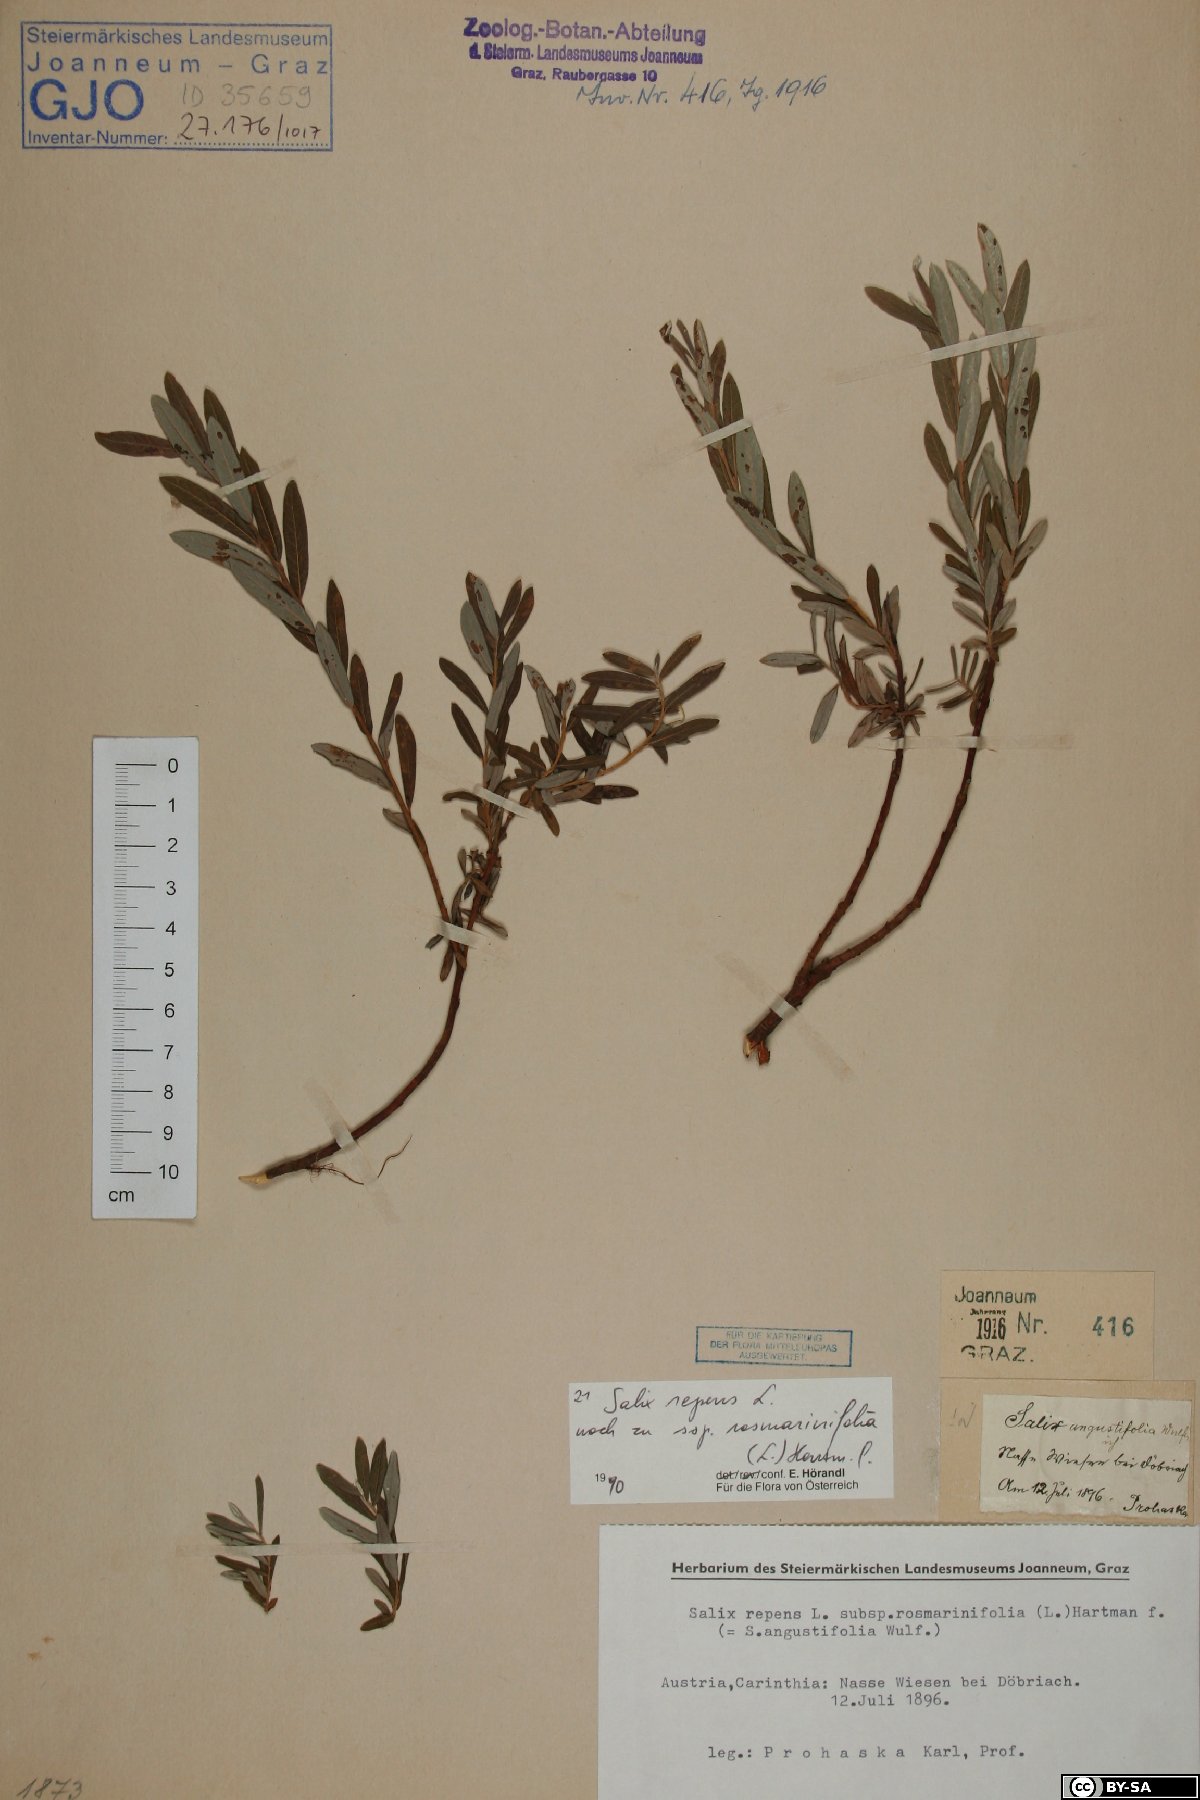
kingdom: Plantae
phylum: Tracheophyta
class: Magnoliopsida
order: Malpighiales
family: Salicaceae
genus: Salix
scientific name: Salix repens
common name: Creeping willow
